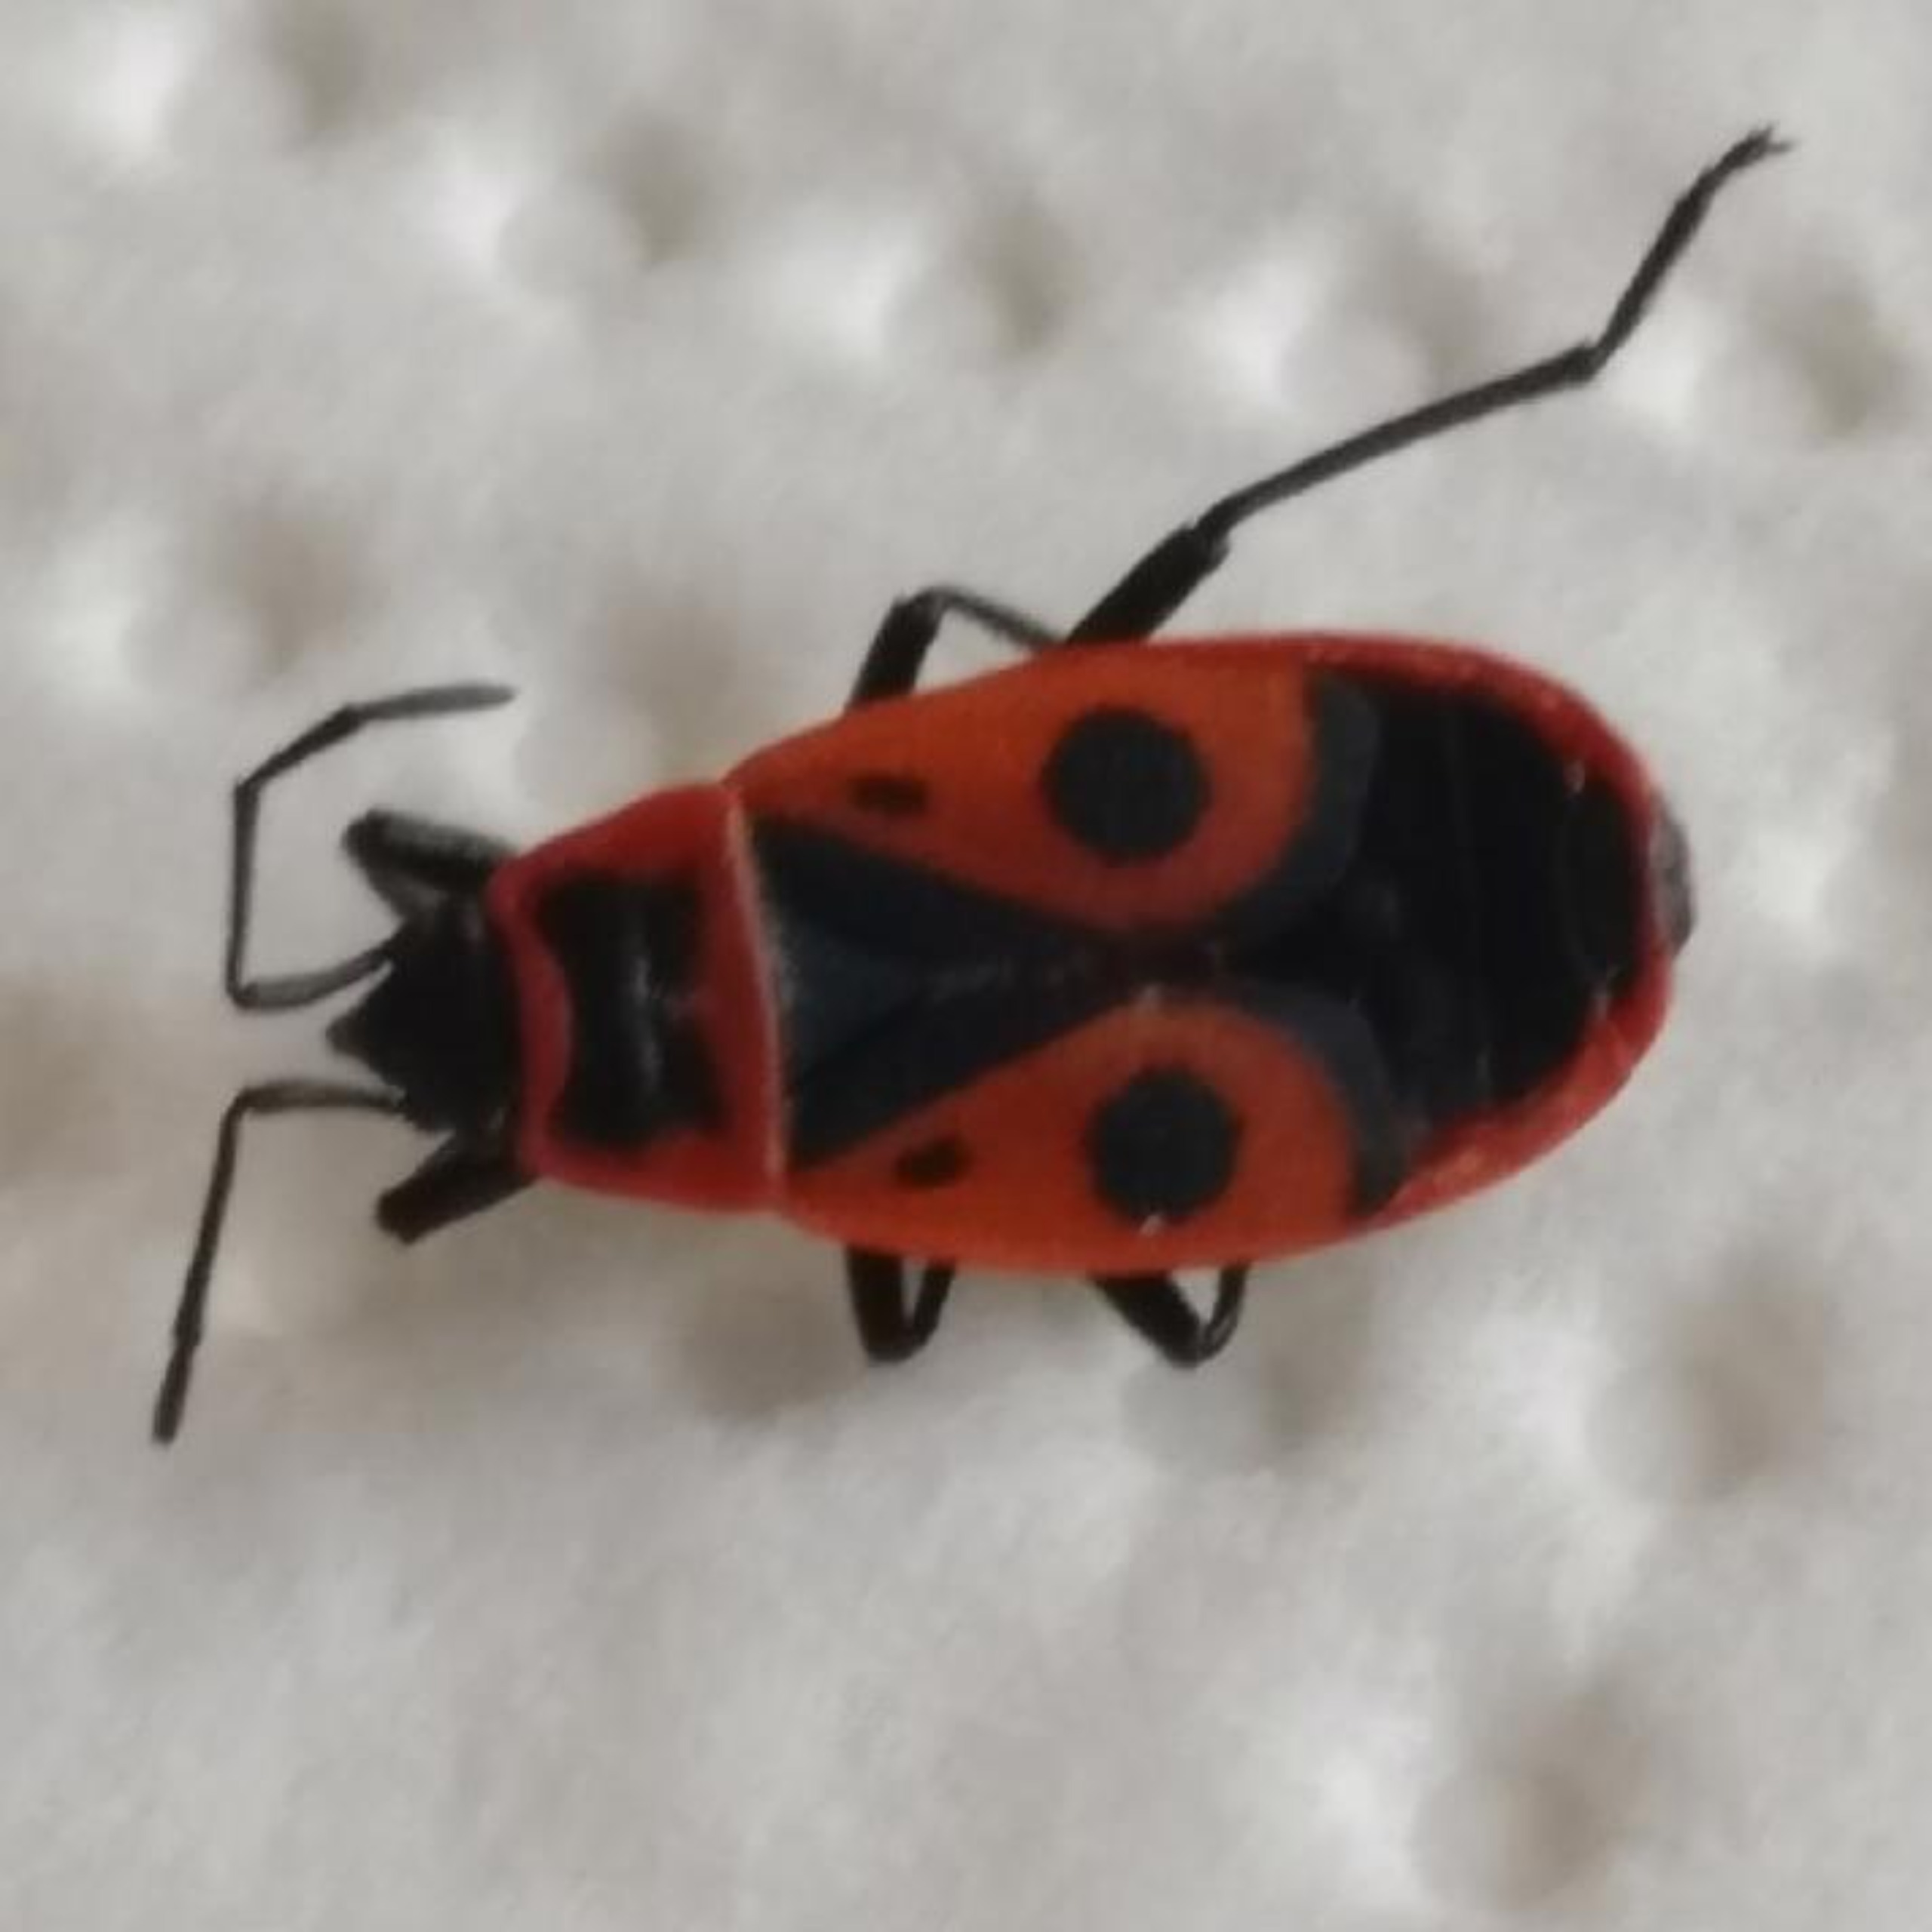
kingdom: Animalia
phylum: Arthropoda
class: Insecta
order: Hemiptera
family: Pyrrhocoridae
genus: Pyrrhocoris
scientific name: Pyrrhocoris apterus
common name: Ildtæge
